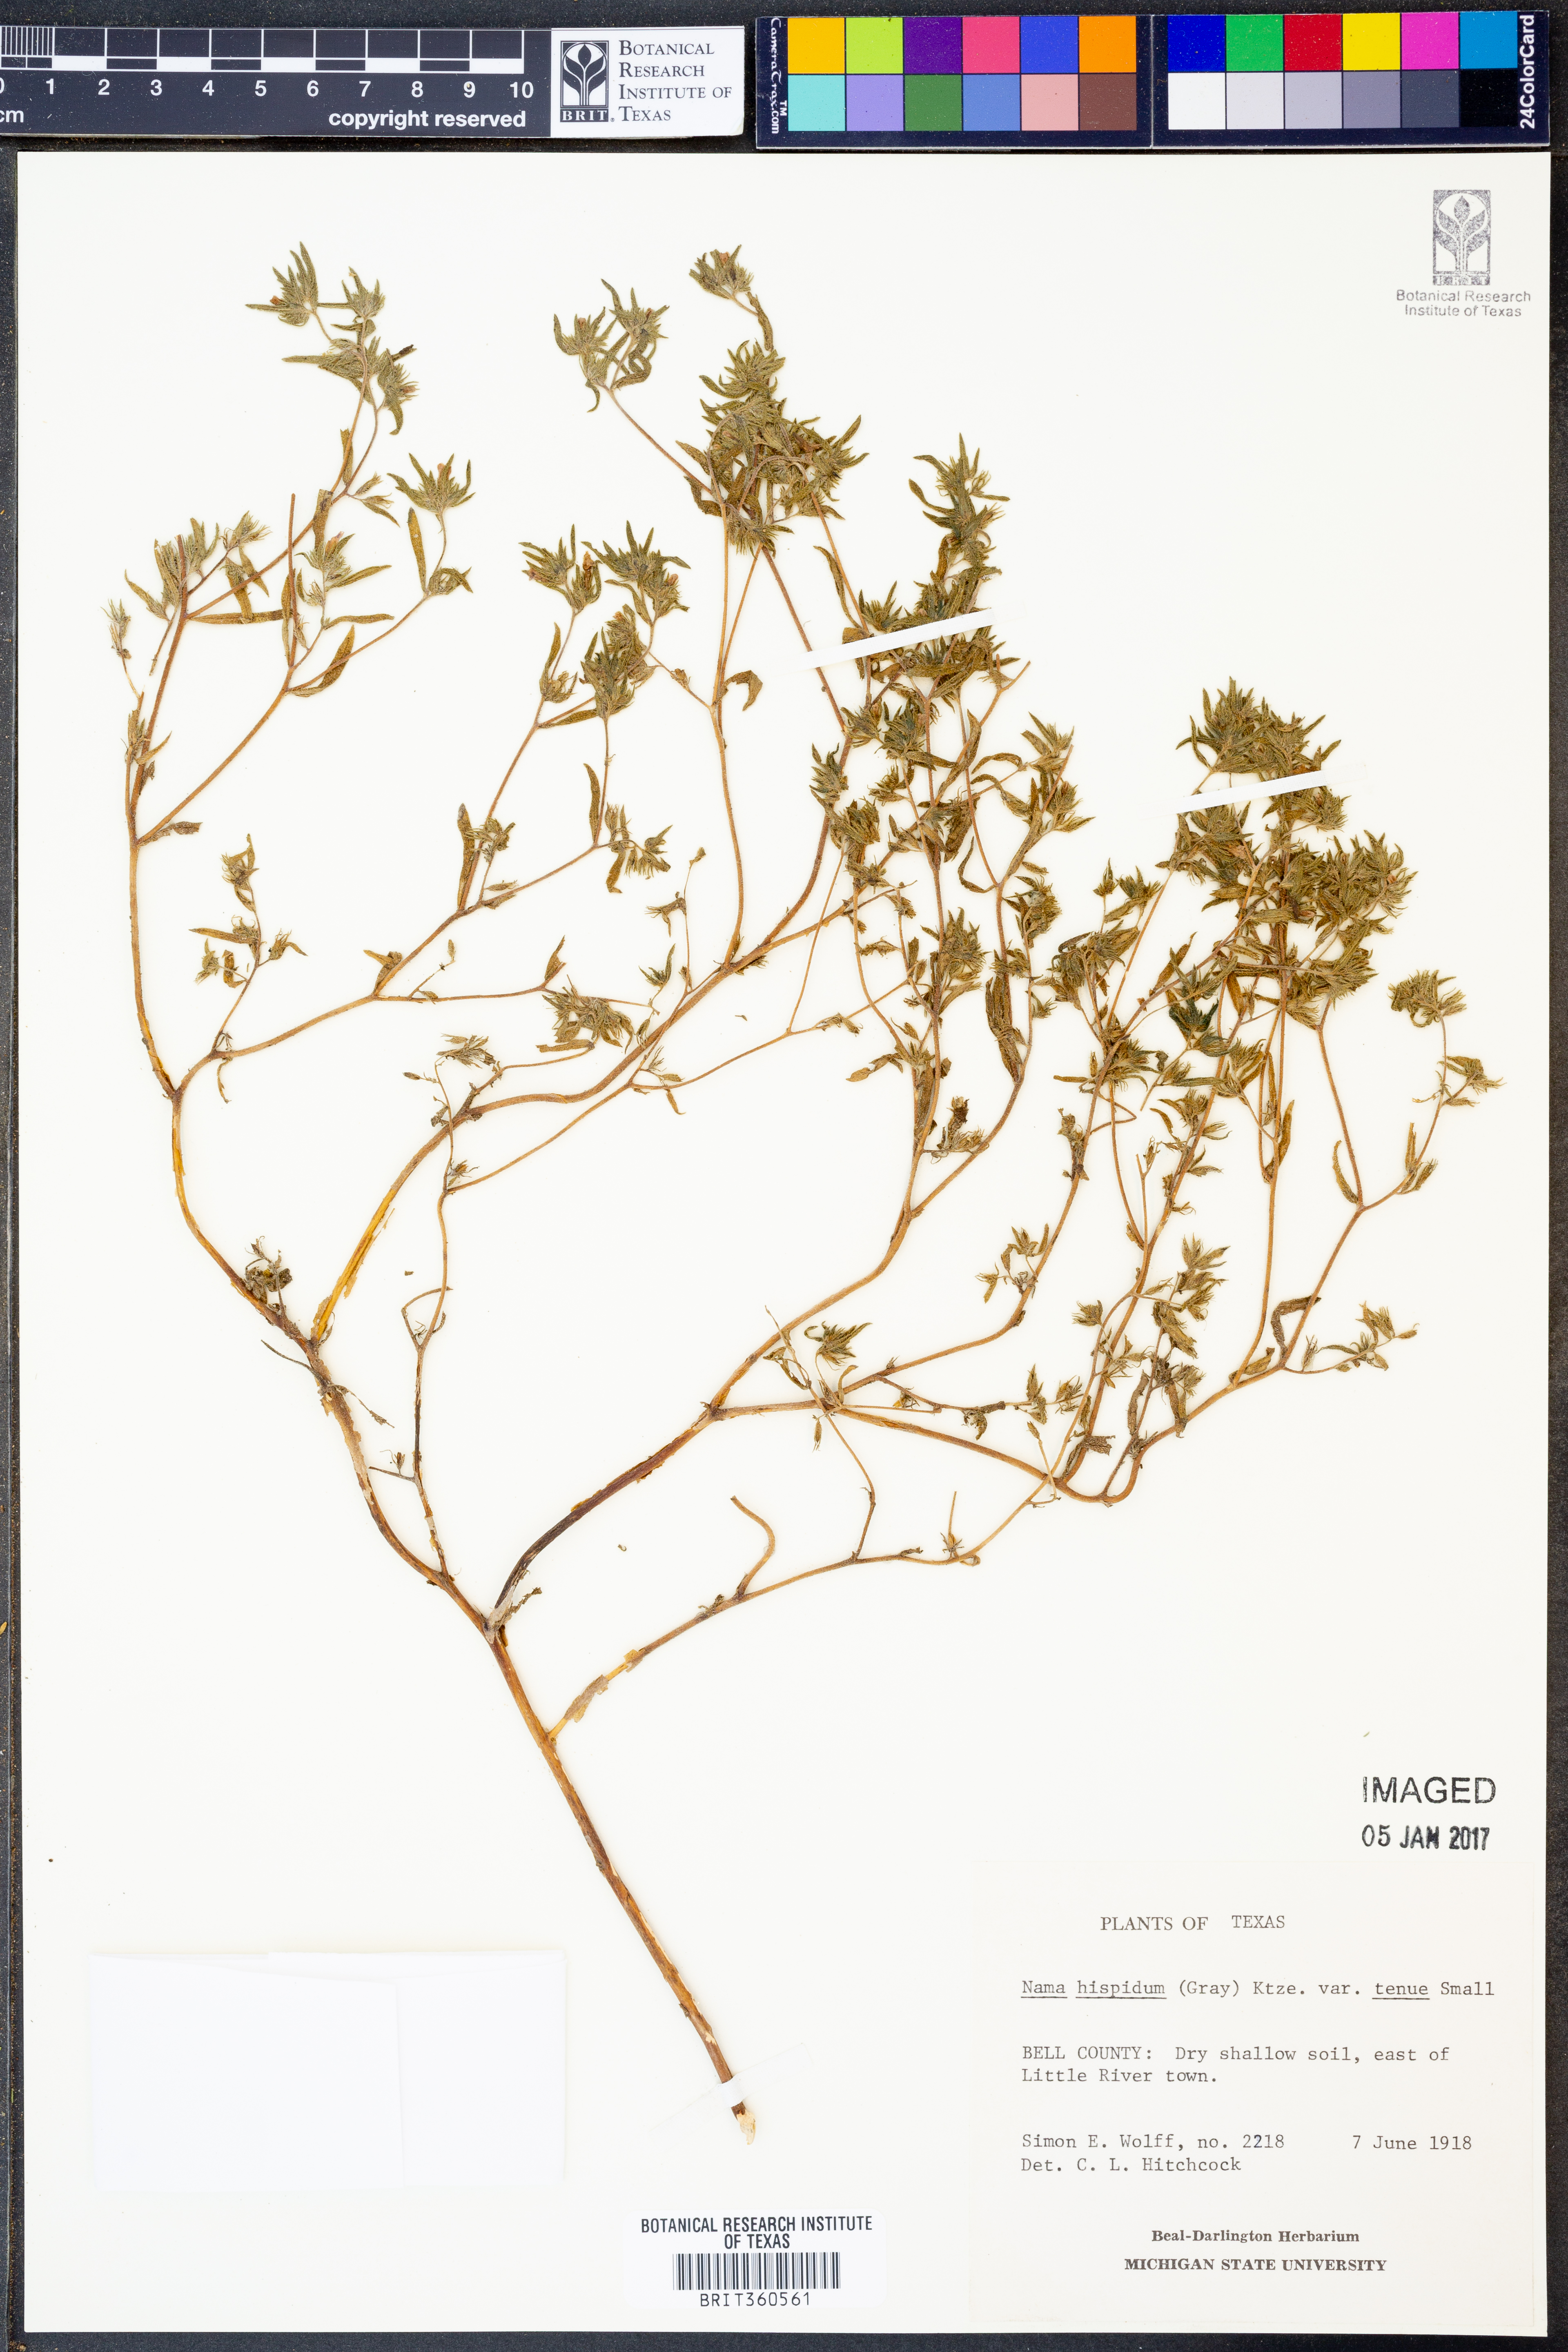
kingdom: Plantae
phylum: Tracheophyta
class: Magnoliopsida
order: Boraginales
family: Namaceae
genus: Nama
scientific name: Nama hispida
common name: Bristly nama
